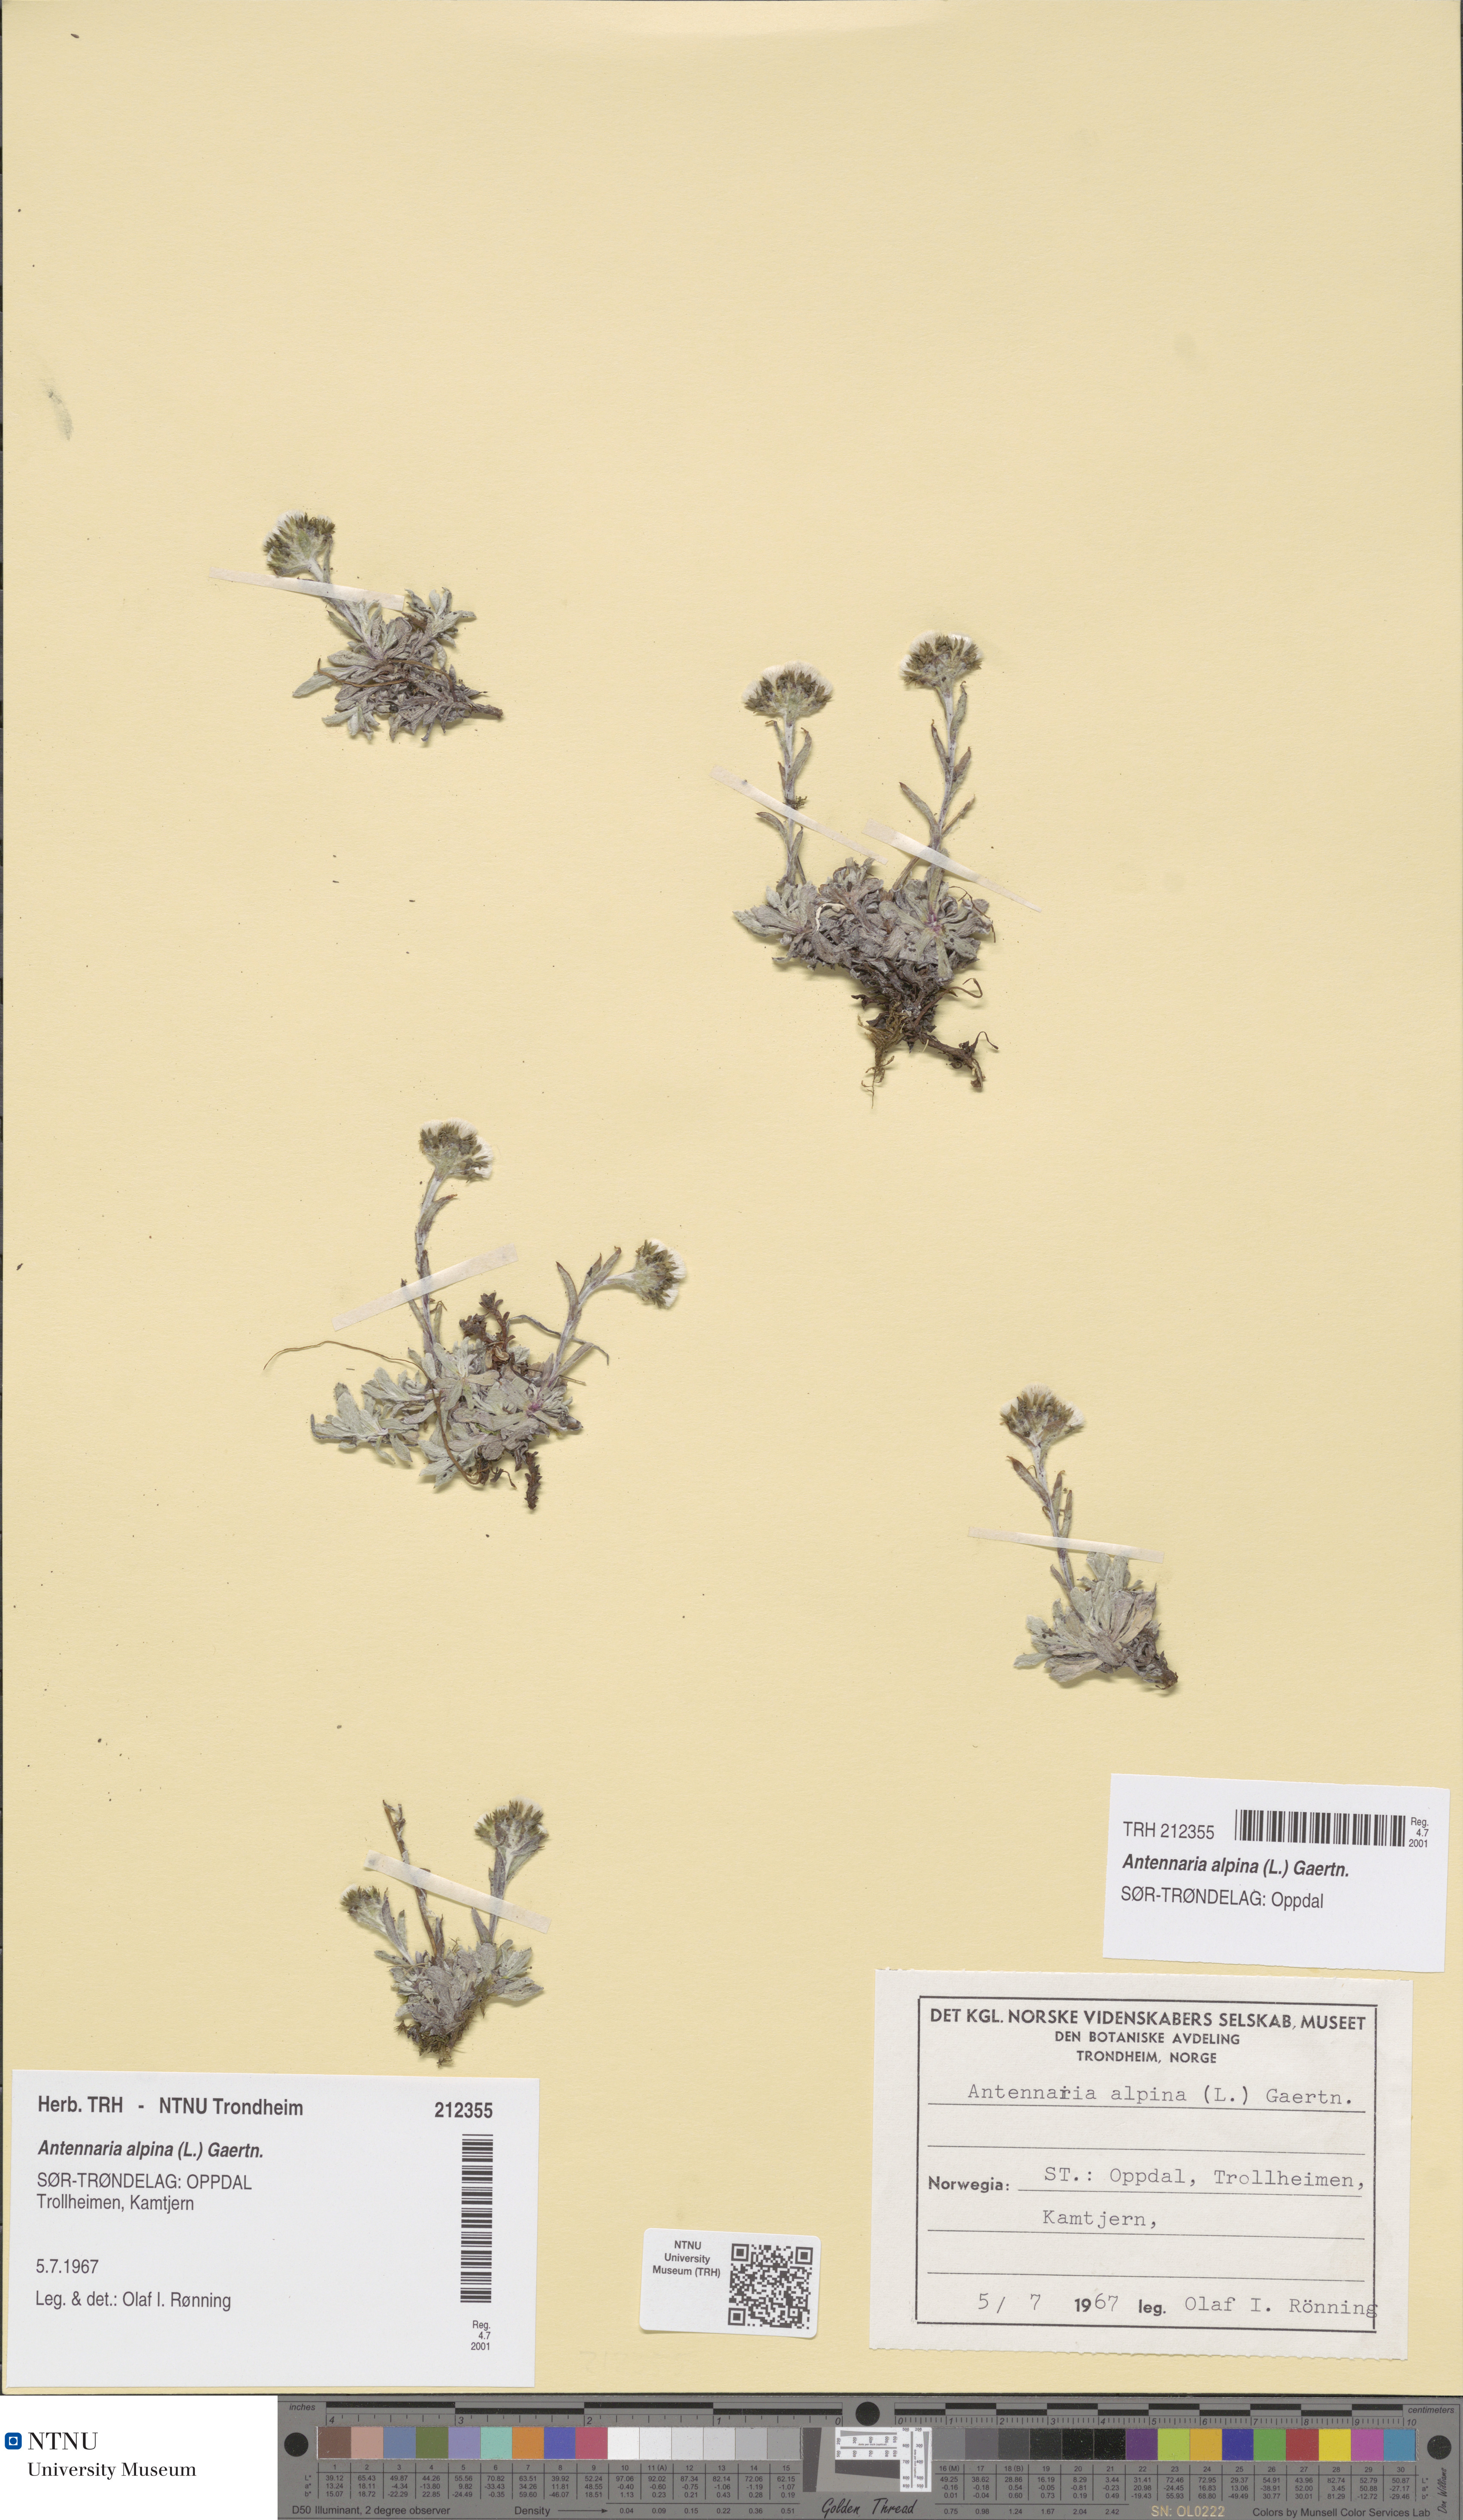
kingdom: Plantae
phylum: Tracheophyta
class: Magnoliopsida
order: Asterales
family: Asteraceae
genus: Antennaria
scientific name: Antennaria alpina
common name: Alpine pussytoes
